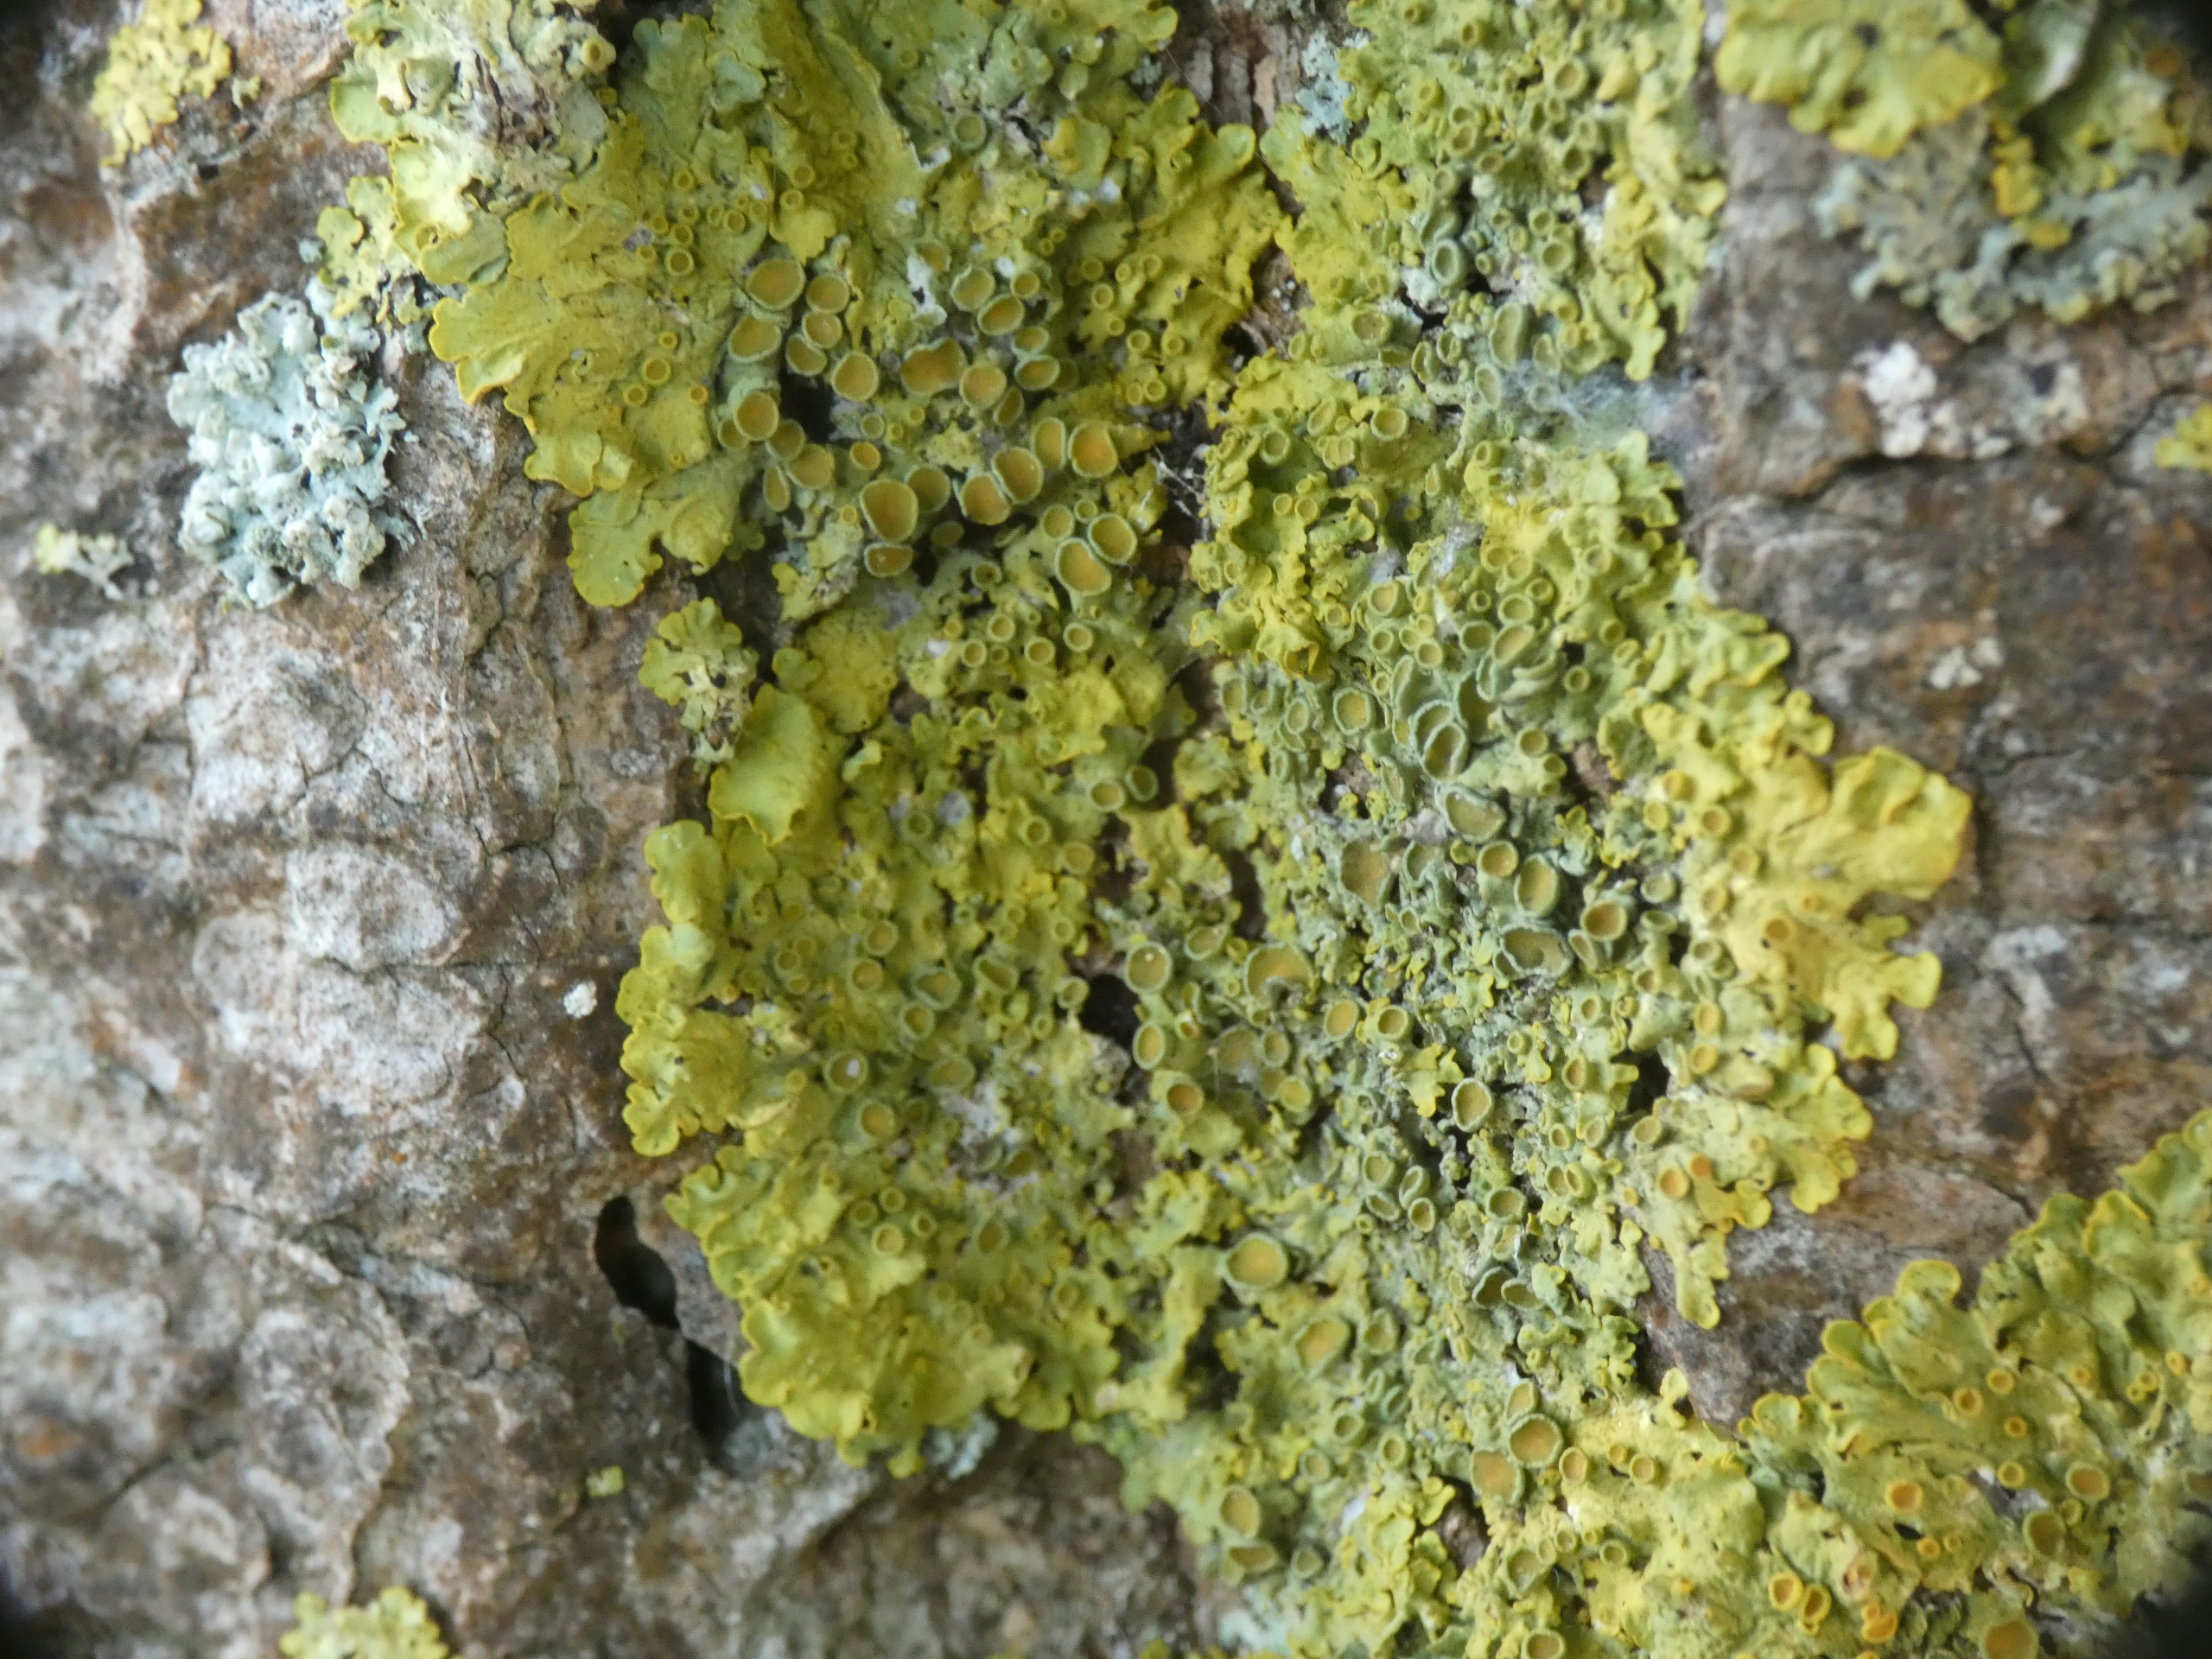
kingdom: Fungi
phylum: Ascomycota
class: Lecanoromycetes
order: Teloschistales
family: Teloschistaceae
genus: Xanthoria
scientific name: Xanthoria parietina
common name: Almindelig væggelav
